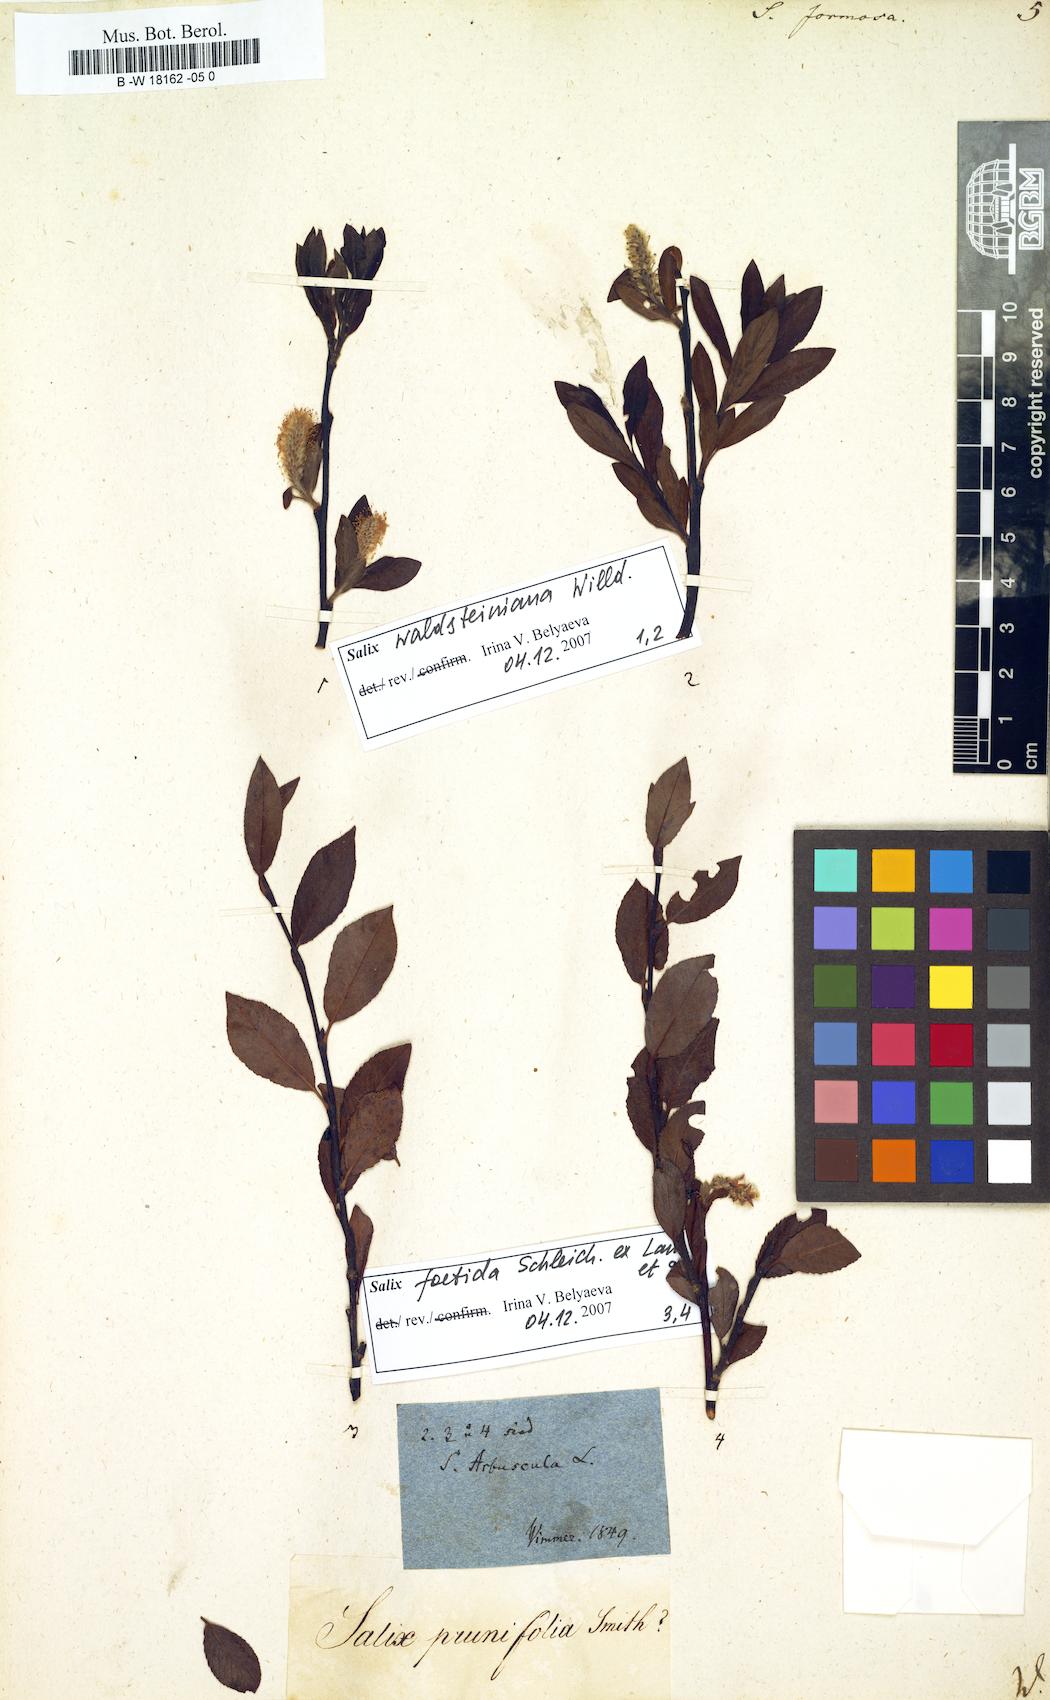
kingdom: Plantae
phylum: Tracheophyta
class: Magnoliopsida
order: Malpighiales
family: Salicaceae
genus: Salix
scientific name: Salix foetida
